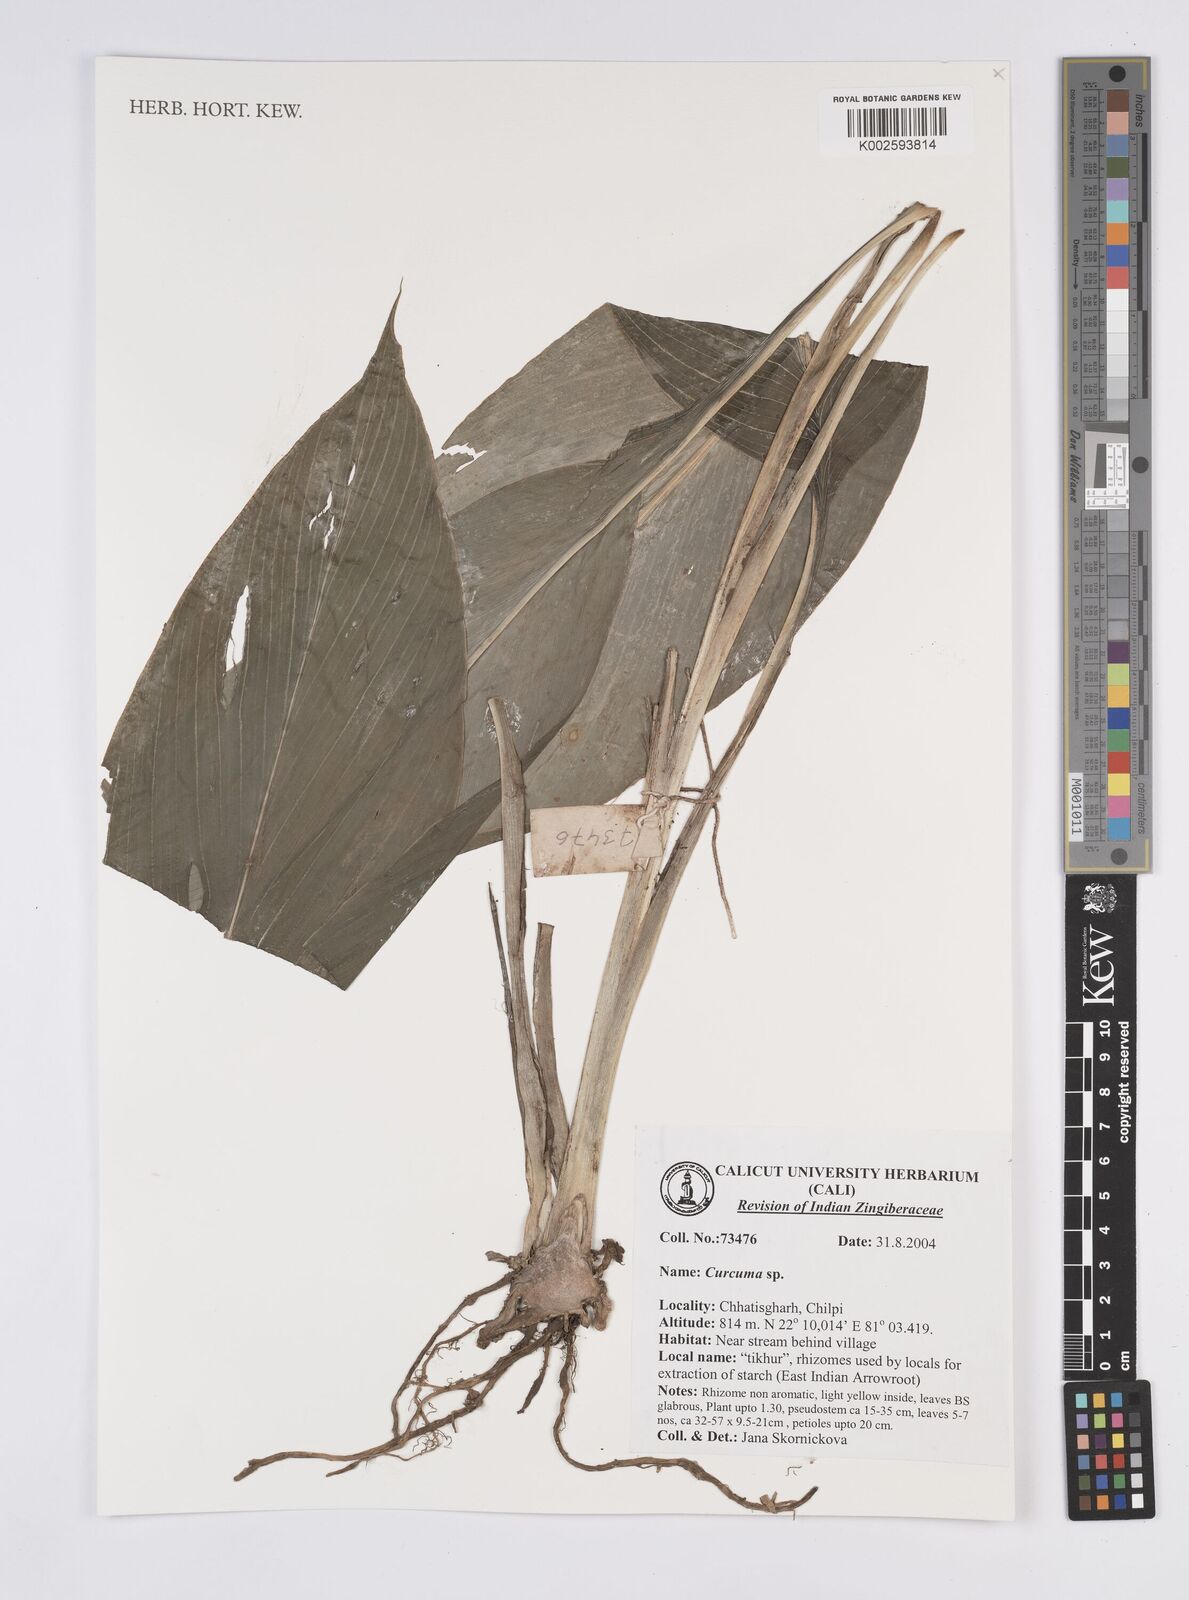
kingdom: Plantae
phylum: Tracheophyta
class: Liliopsida
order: Zingiberales
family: Zingiberaceae
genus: Curcuma
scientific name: Curcuma
